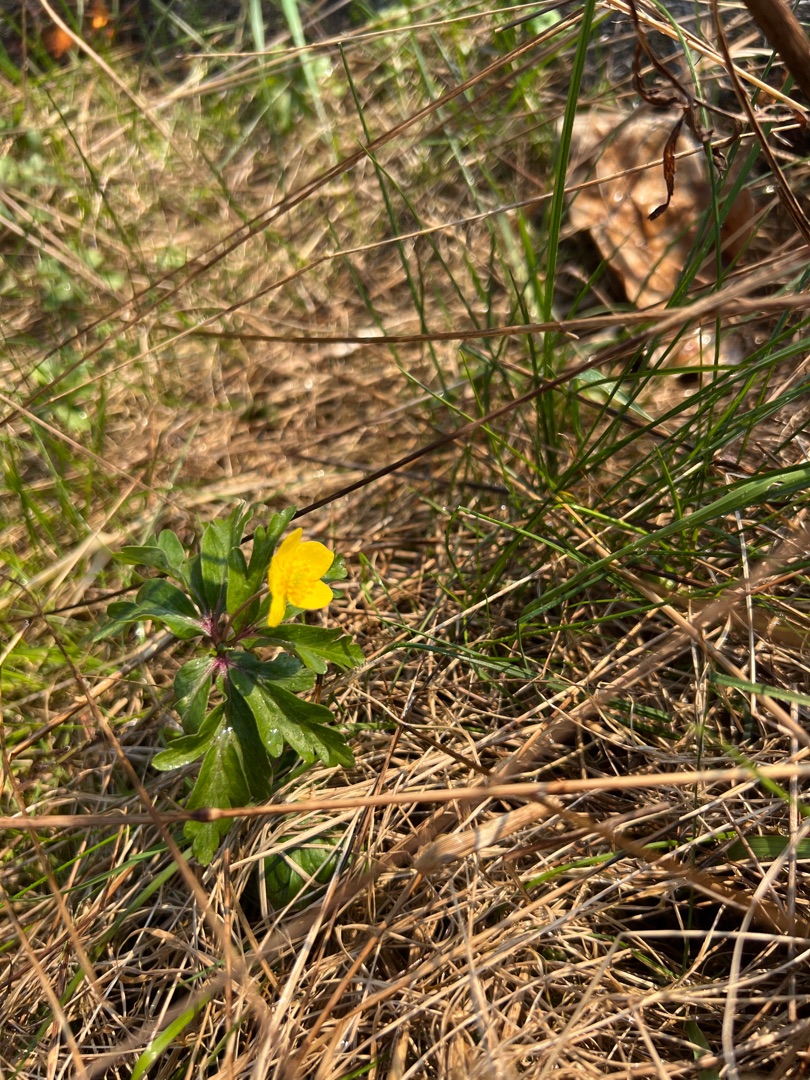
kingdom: Plantae
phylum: Tracheophyta
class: Magnoliopsida
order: Ranunculales
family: Ranunculaceae
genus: Anemone
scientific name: Anemone ranunculoides
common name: Gul anemone
